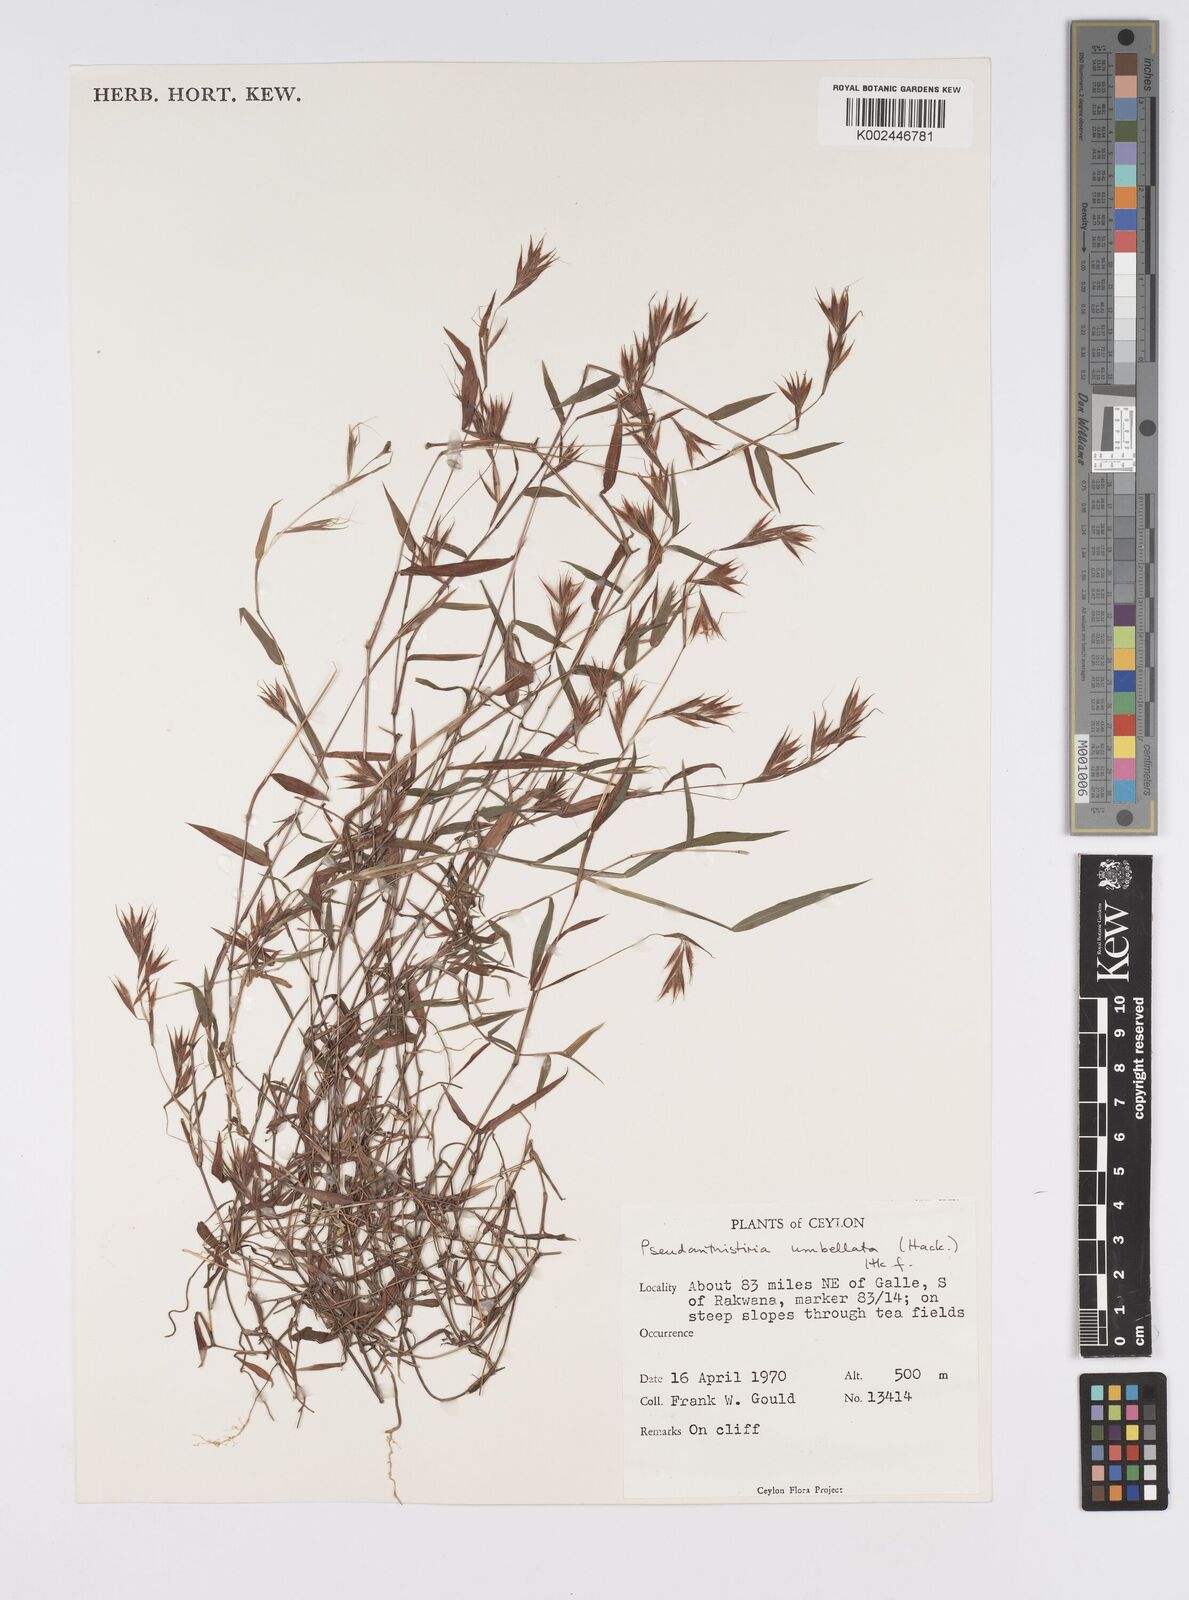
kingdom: Plantae
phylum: Tracheophyta
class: Liliopsida
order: Poales
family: Poaceae
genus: Pseudanthistiria
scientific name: Pseudanthistiria umbellata
